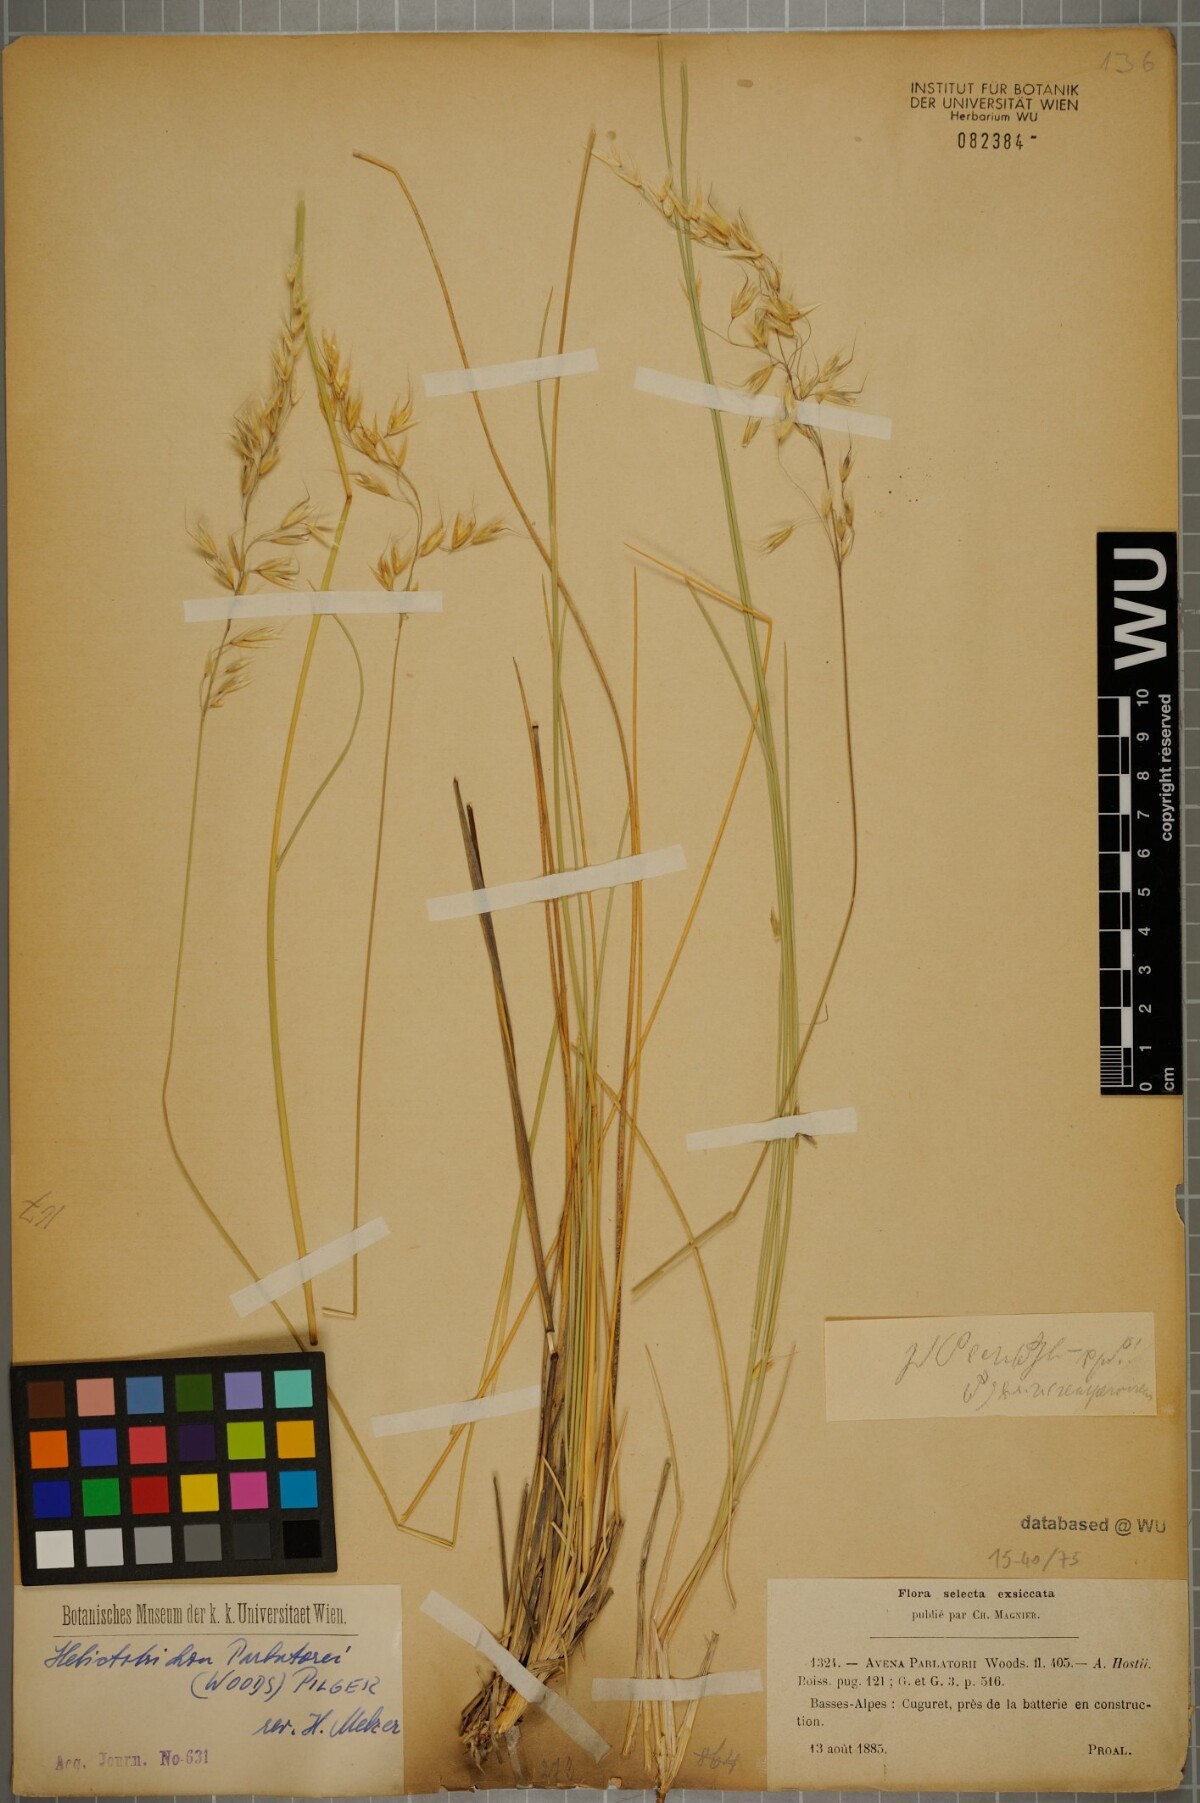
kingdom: Plantae
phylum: Tracheophyta
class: Liliopsida
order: Poales
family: Poaceae
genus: Helictotrichon
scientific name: Helictotrichon parlatorei
